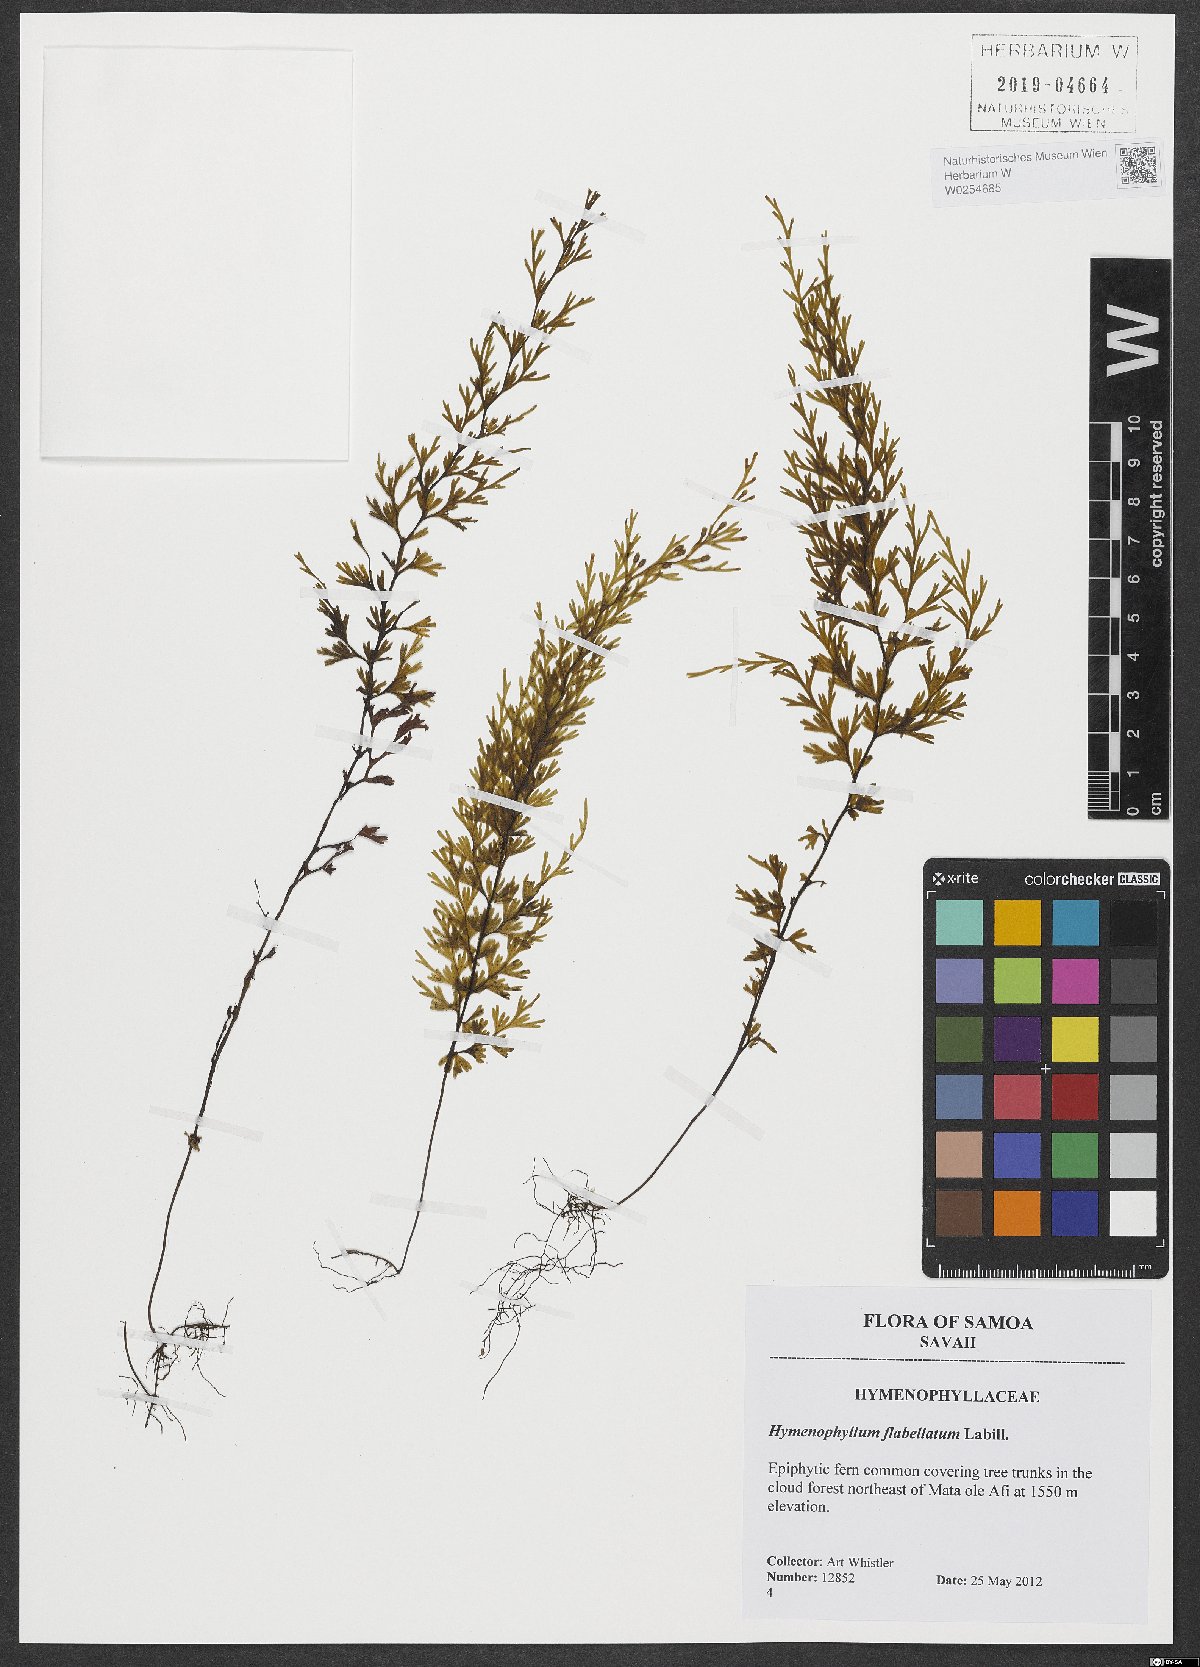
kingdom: Plantae
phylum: Tracheophyta
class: Polypodiopsida
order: Hymenophyllales
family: Hymenophyllaceae
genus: Hymenophyllum
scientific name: Hymenophyllum flabellatum
